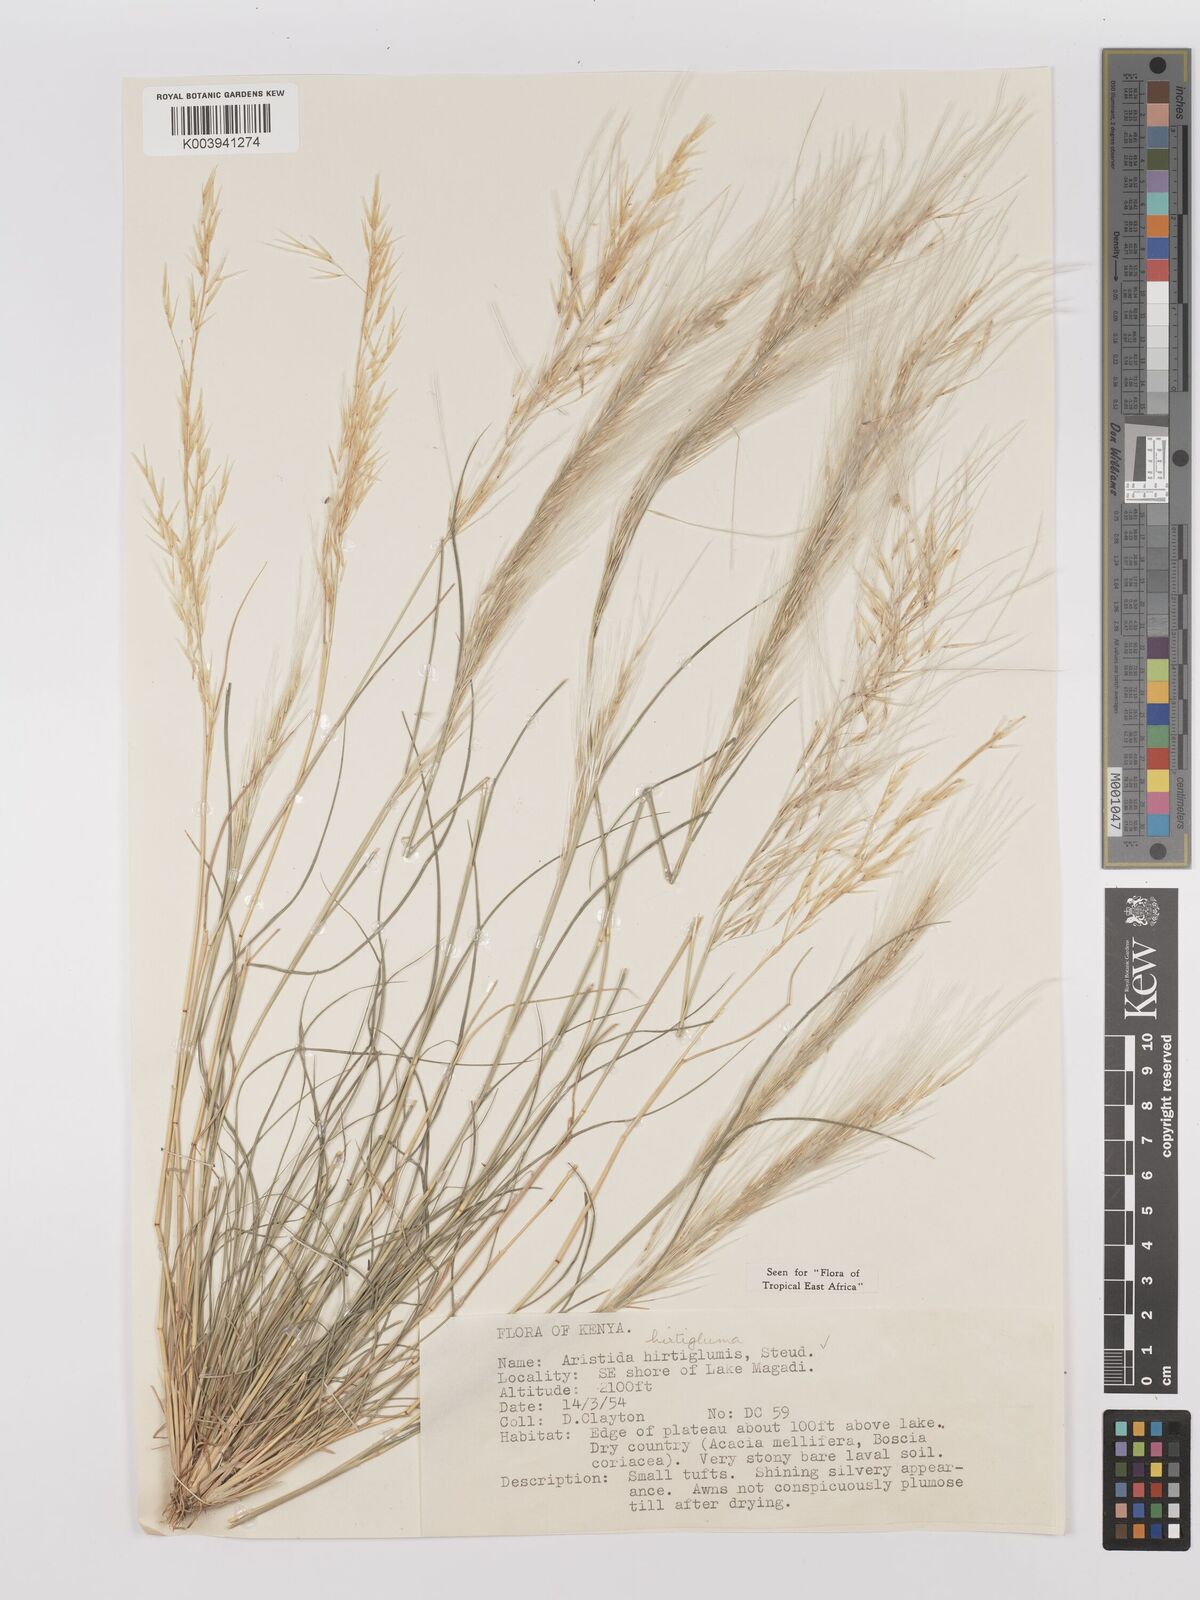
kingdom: Plantae
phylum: Tracheophyta
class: Liliopsida
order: Poales
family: Poaceae
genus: Stipagrostis
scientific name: Stipagrostis hirtigluma
